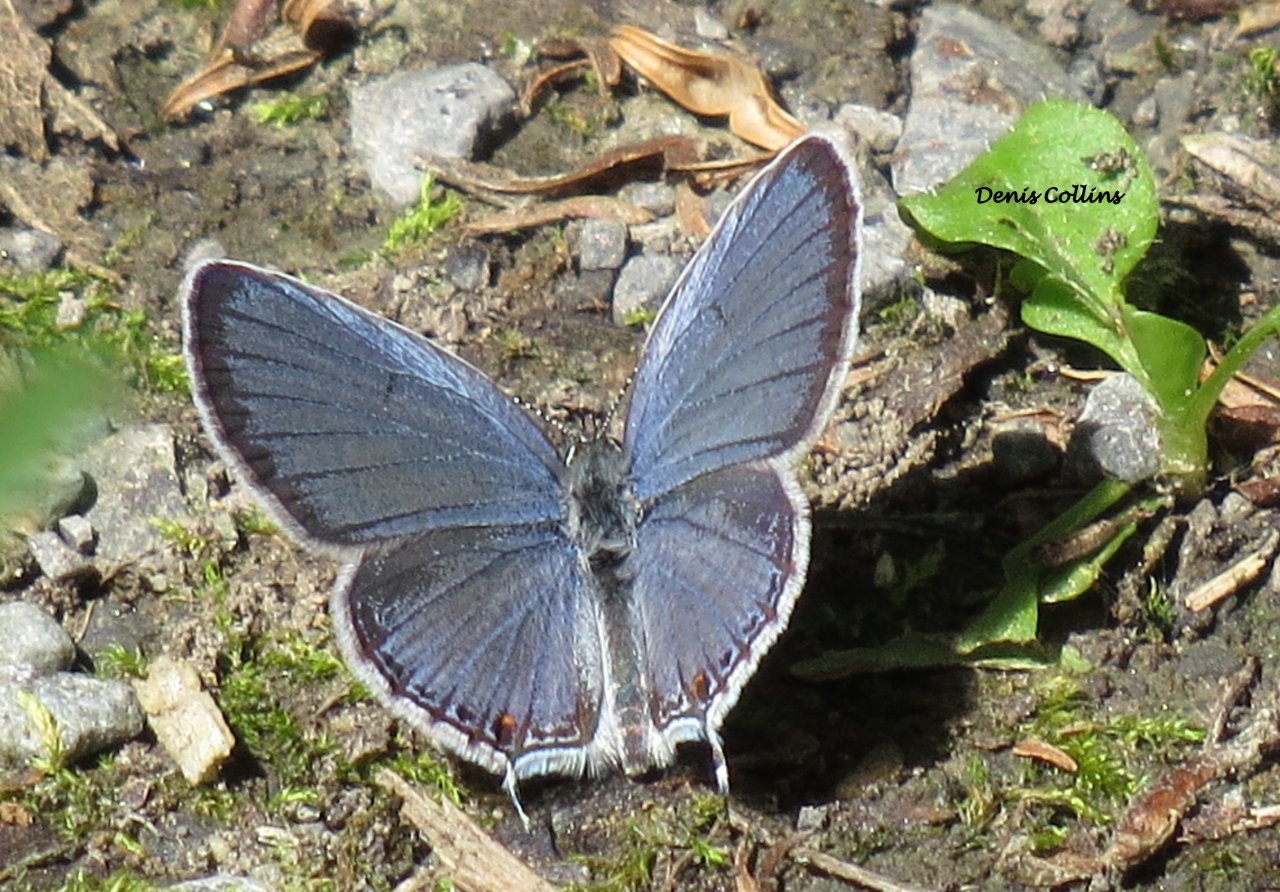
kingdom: Animalia
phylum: Arthropoda
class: Insecta
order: Lepidoptera
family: Lycaenidae
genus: Elkalyce
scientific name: Elkalyce comyntas
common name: Eastern Tailed-Blue
